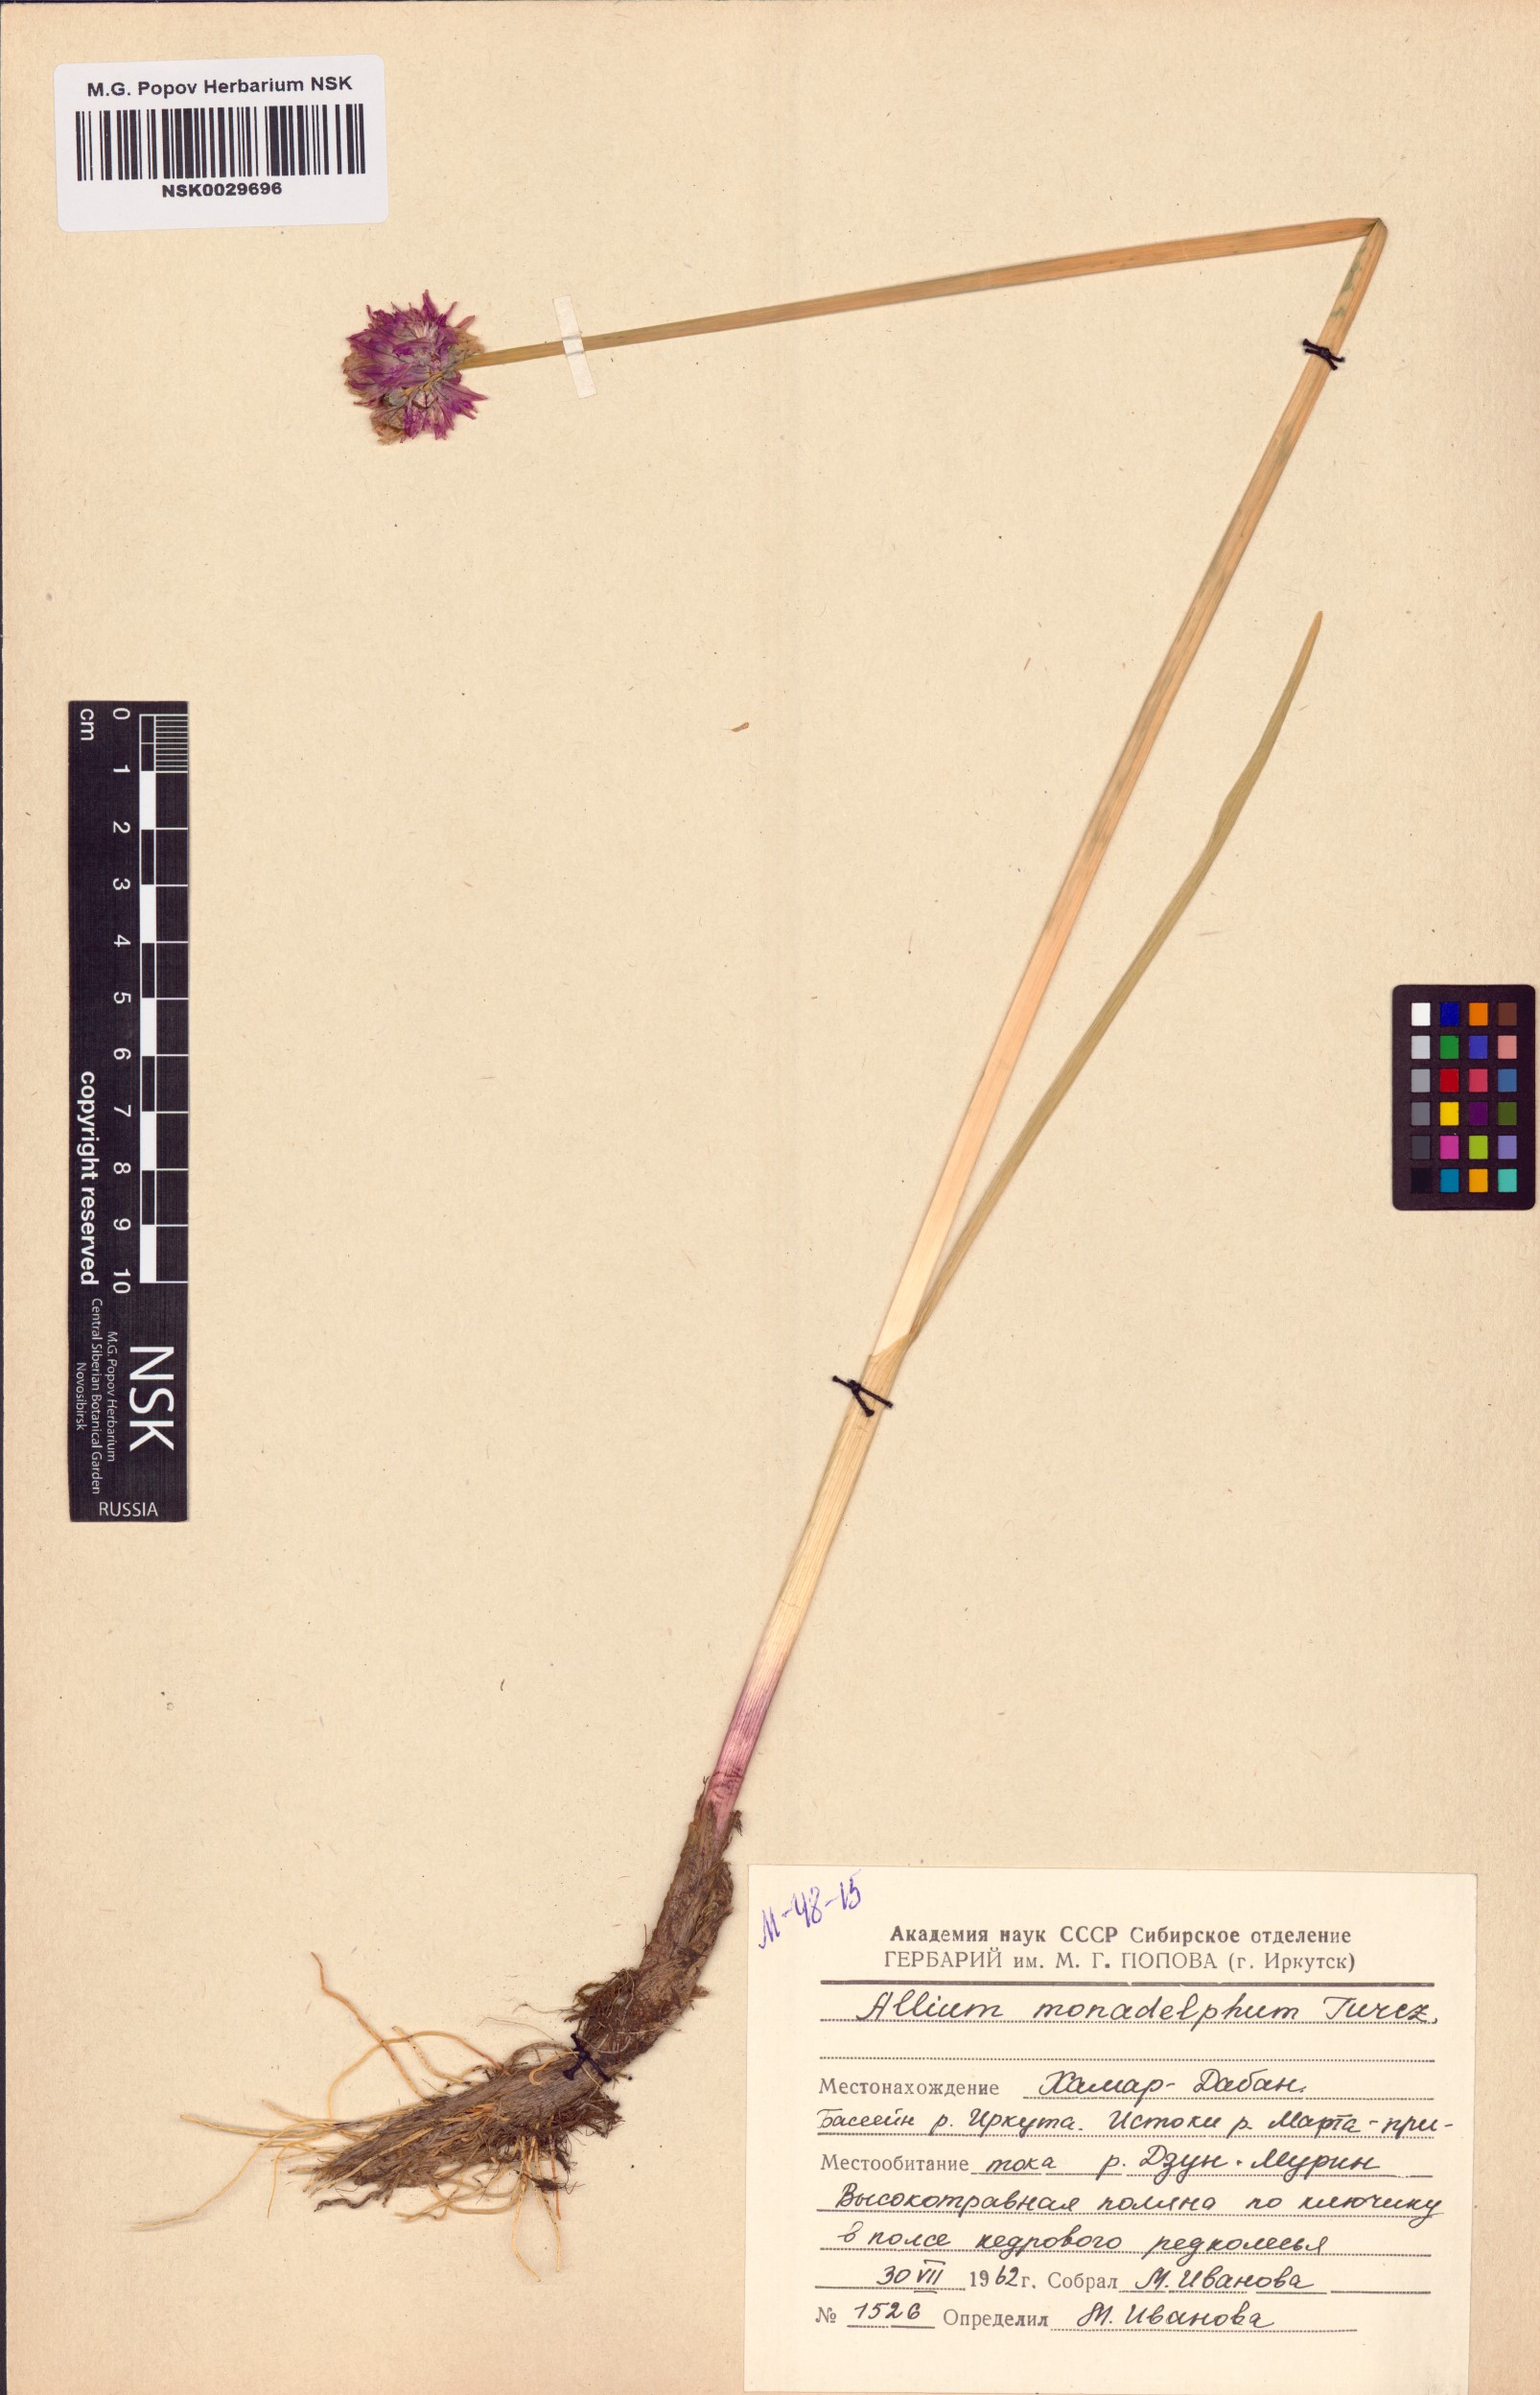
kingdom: Plantae
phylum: Tracheophyta
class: Liliopsida
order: Asparagales
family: Amaryllidaceae
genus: Allium
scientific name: Allium atrosanguineum
